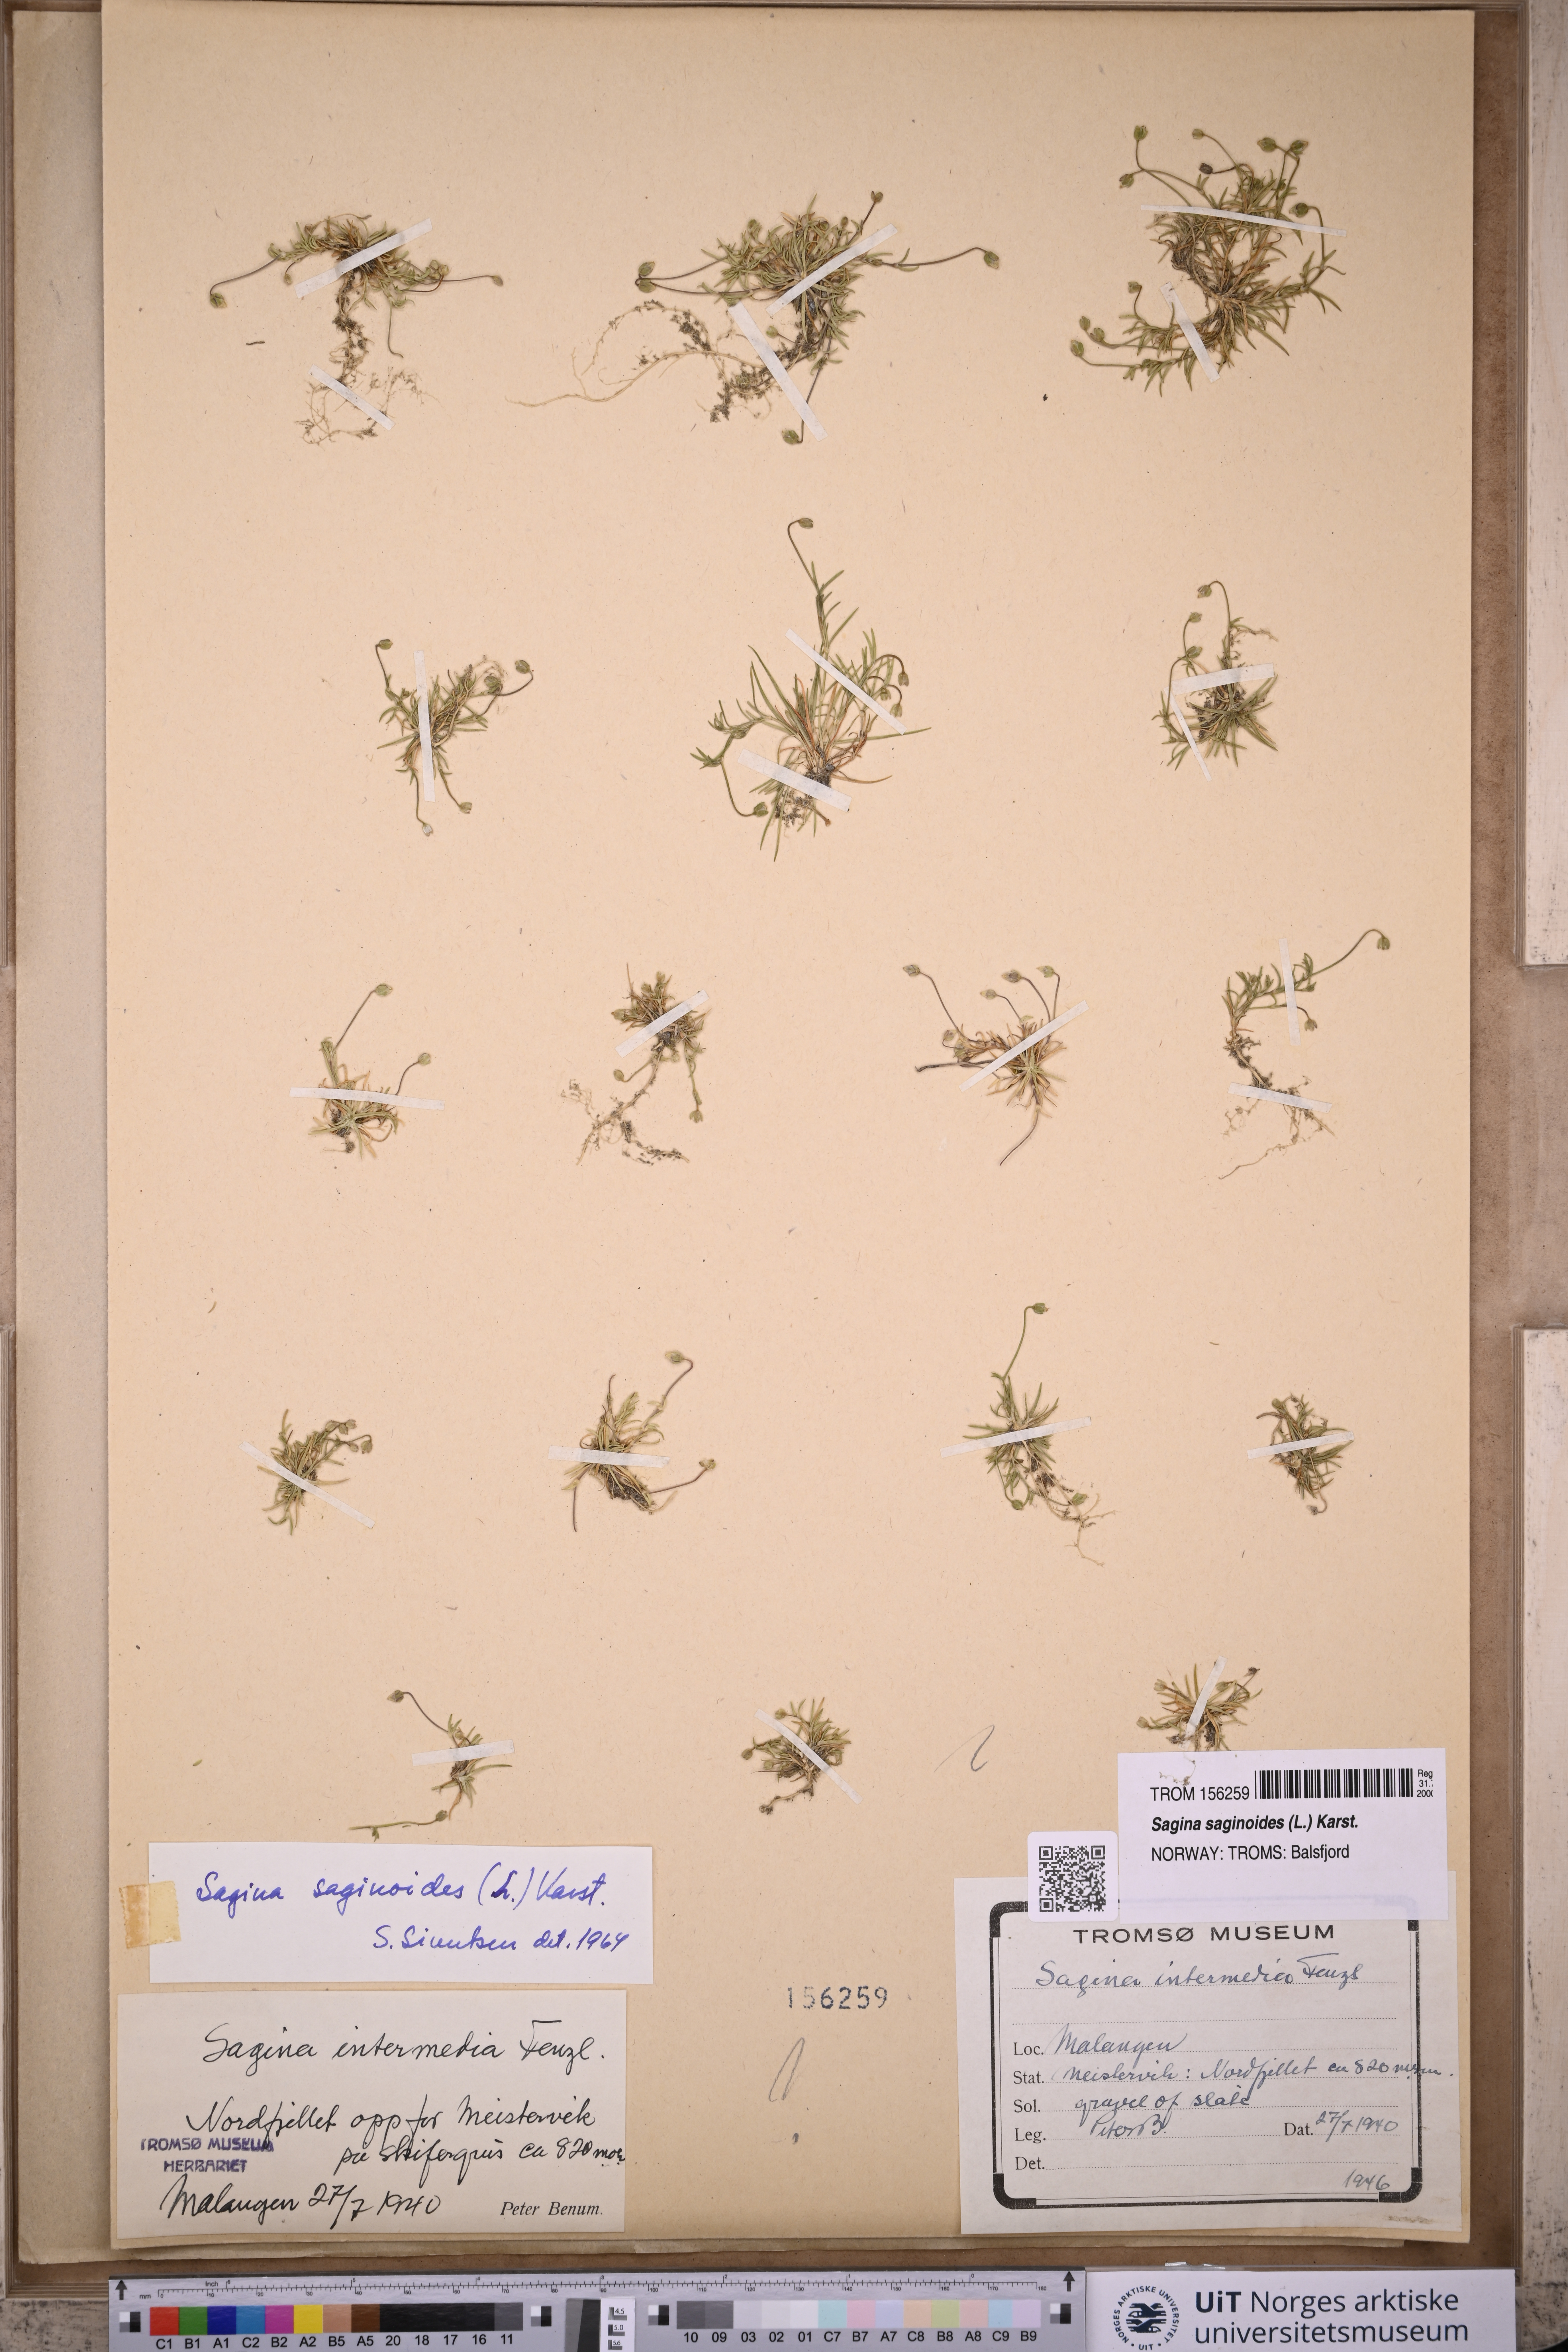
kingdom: Plantae
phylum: Tracheophyta
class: Magnoliopsida
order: Caryophyllales
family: Caryophyllaceae
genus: Sagina
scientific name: Sagina saginoides
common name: Alpine pearlwort
